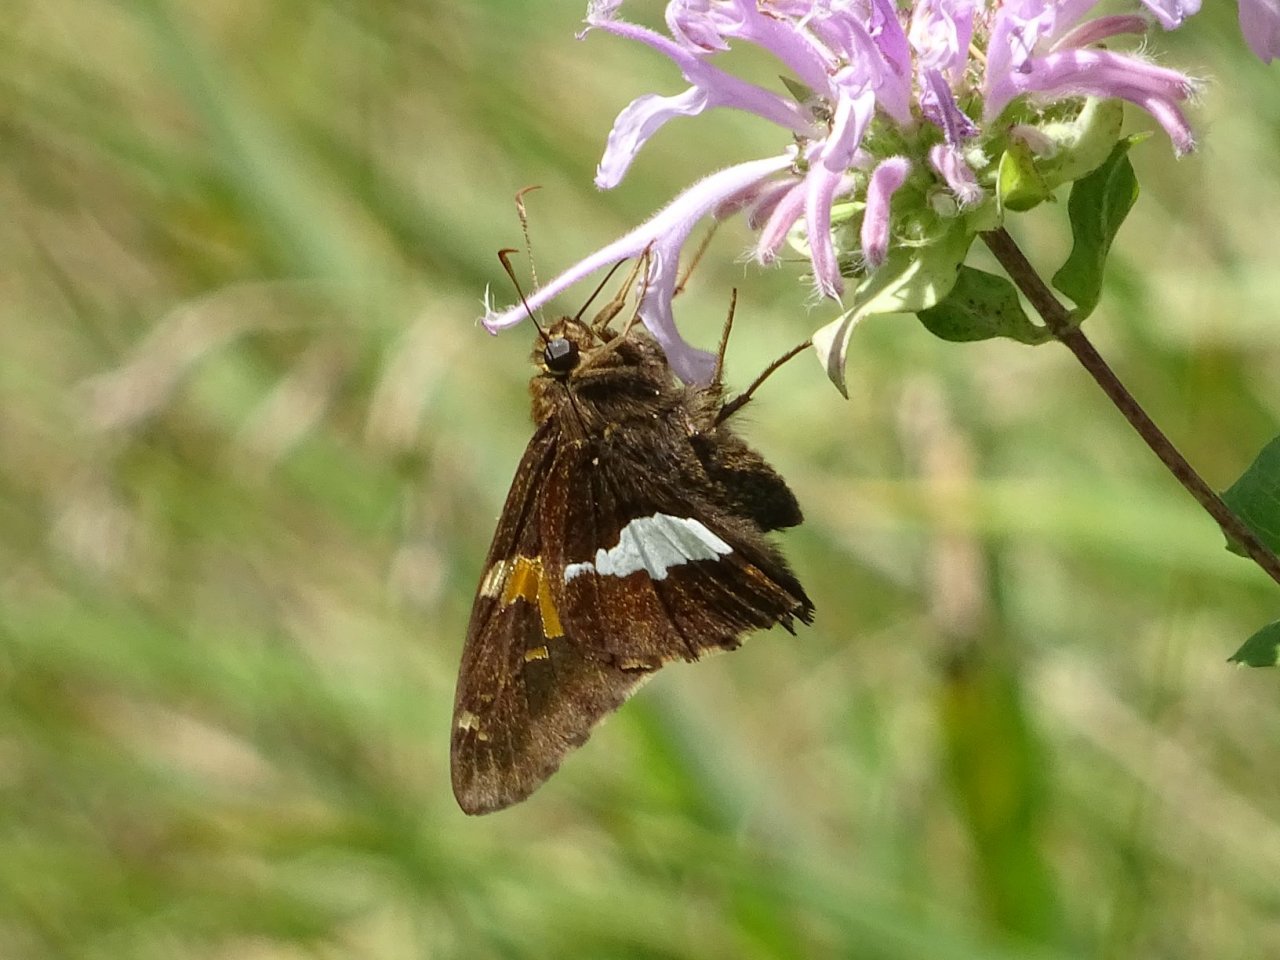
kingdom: Animalia
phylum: Arthropoda
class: Insecta
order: Lepidoptera
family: Hesperiidae
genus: Epargyreus
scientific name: Epargyreus clarus
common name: Silver-spotted Skipper
